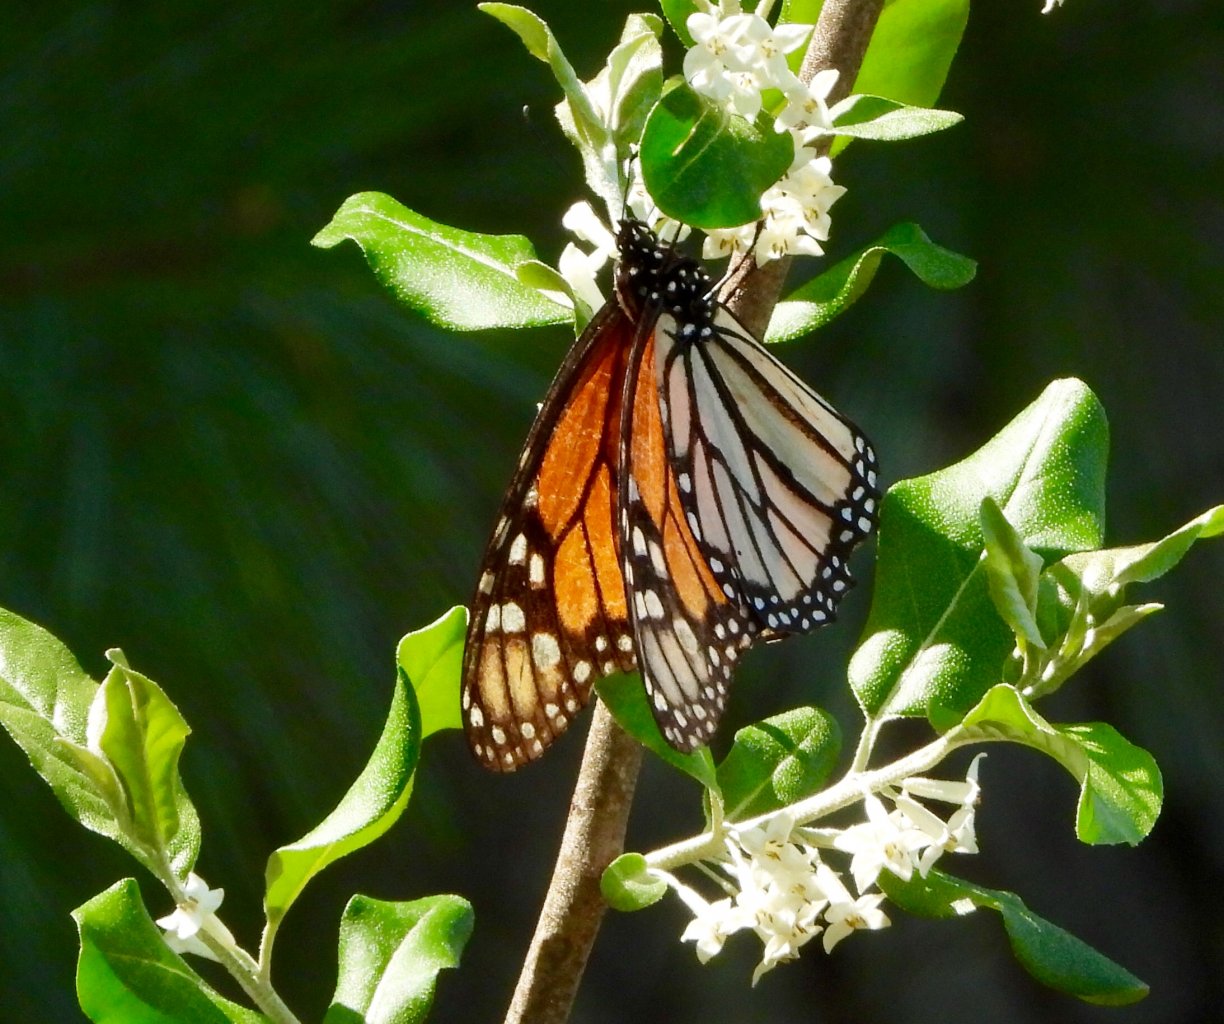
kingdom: Animalia
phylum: Arthropoda
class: Insecta
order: Lepidoptera
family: Nymphalidae
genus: Danaus
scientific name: Danaus plexippus
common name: Monarch
